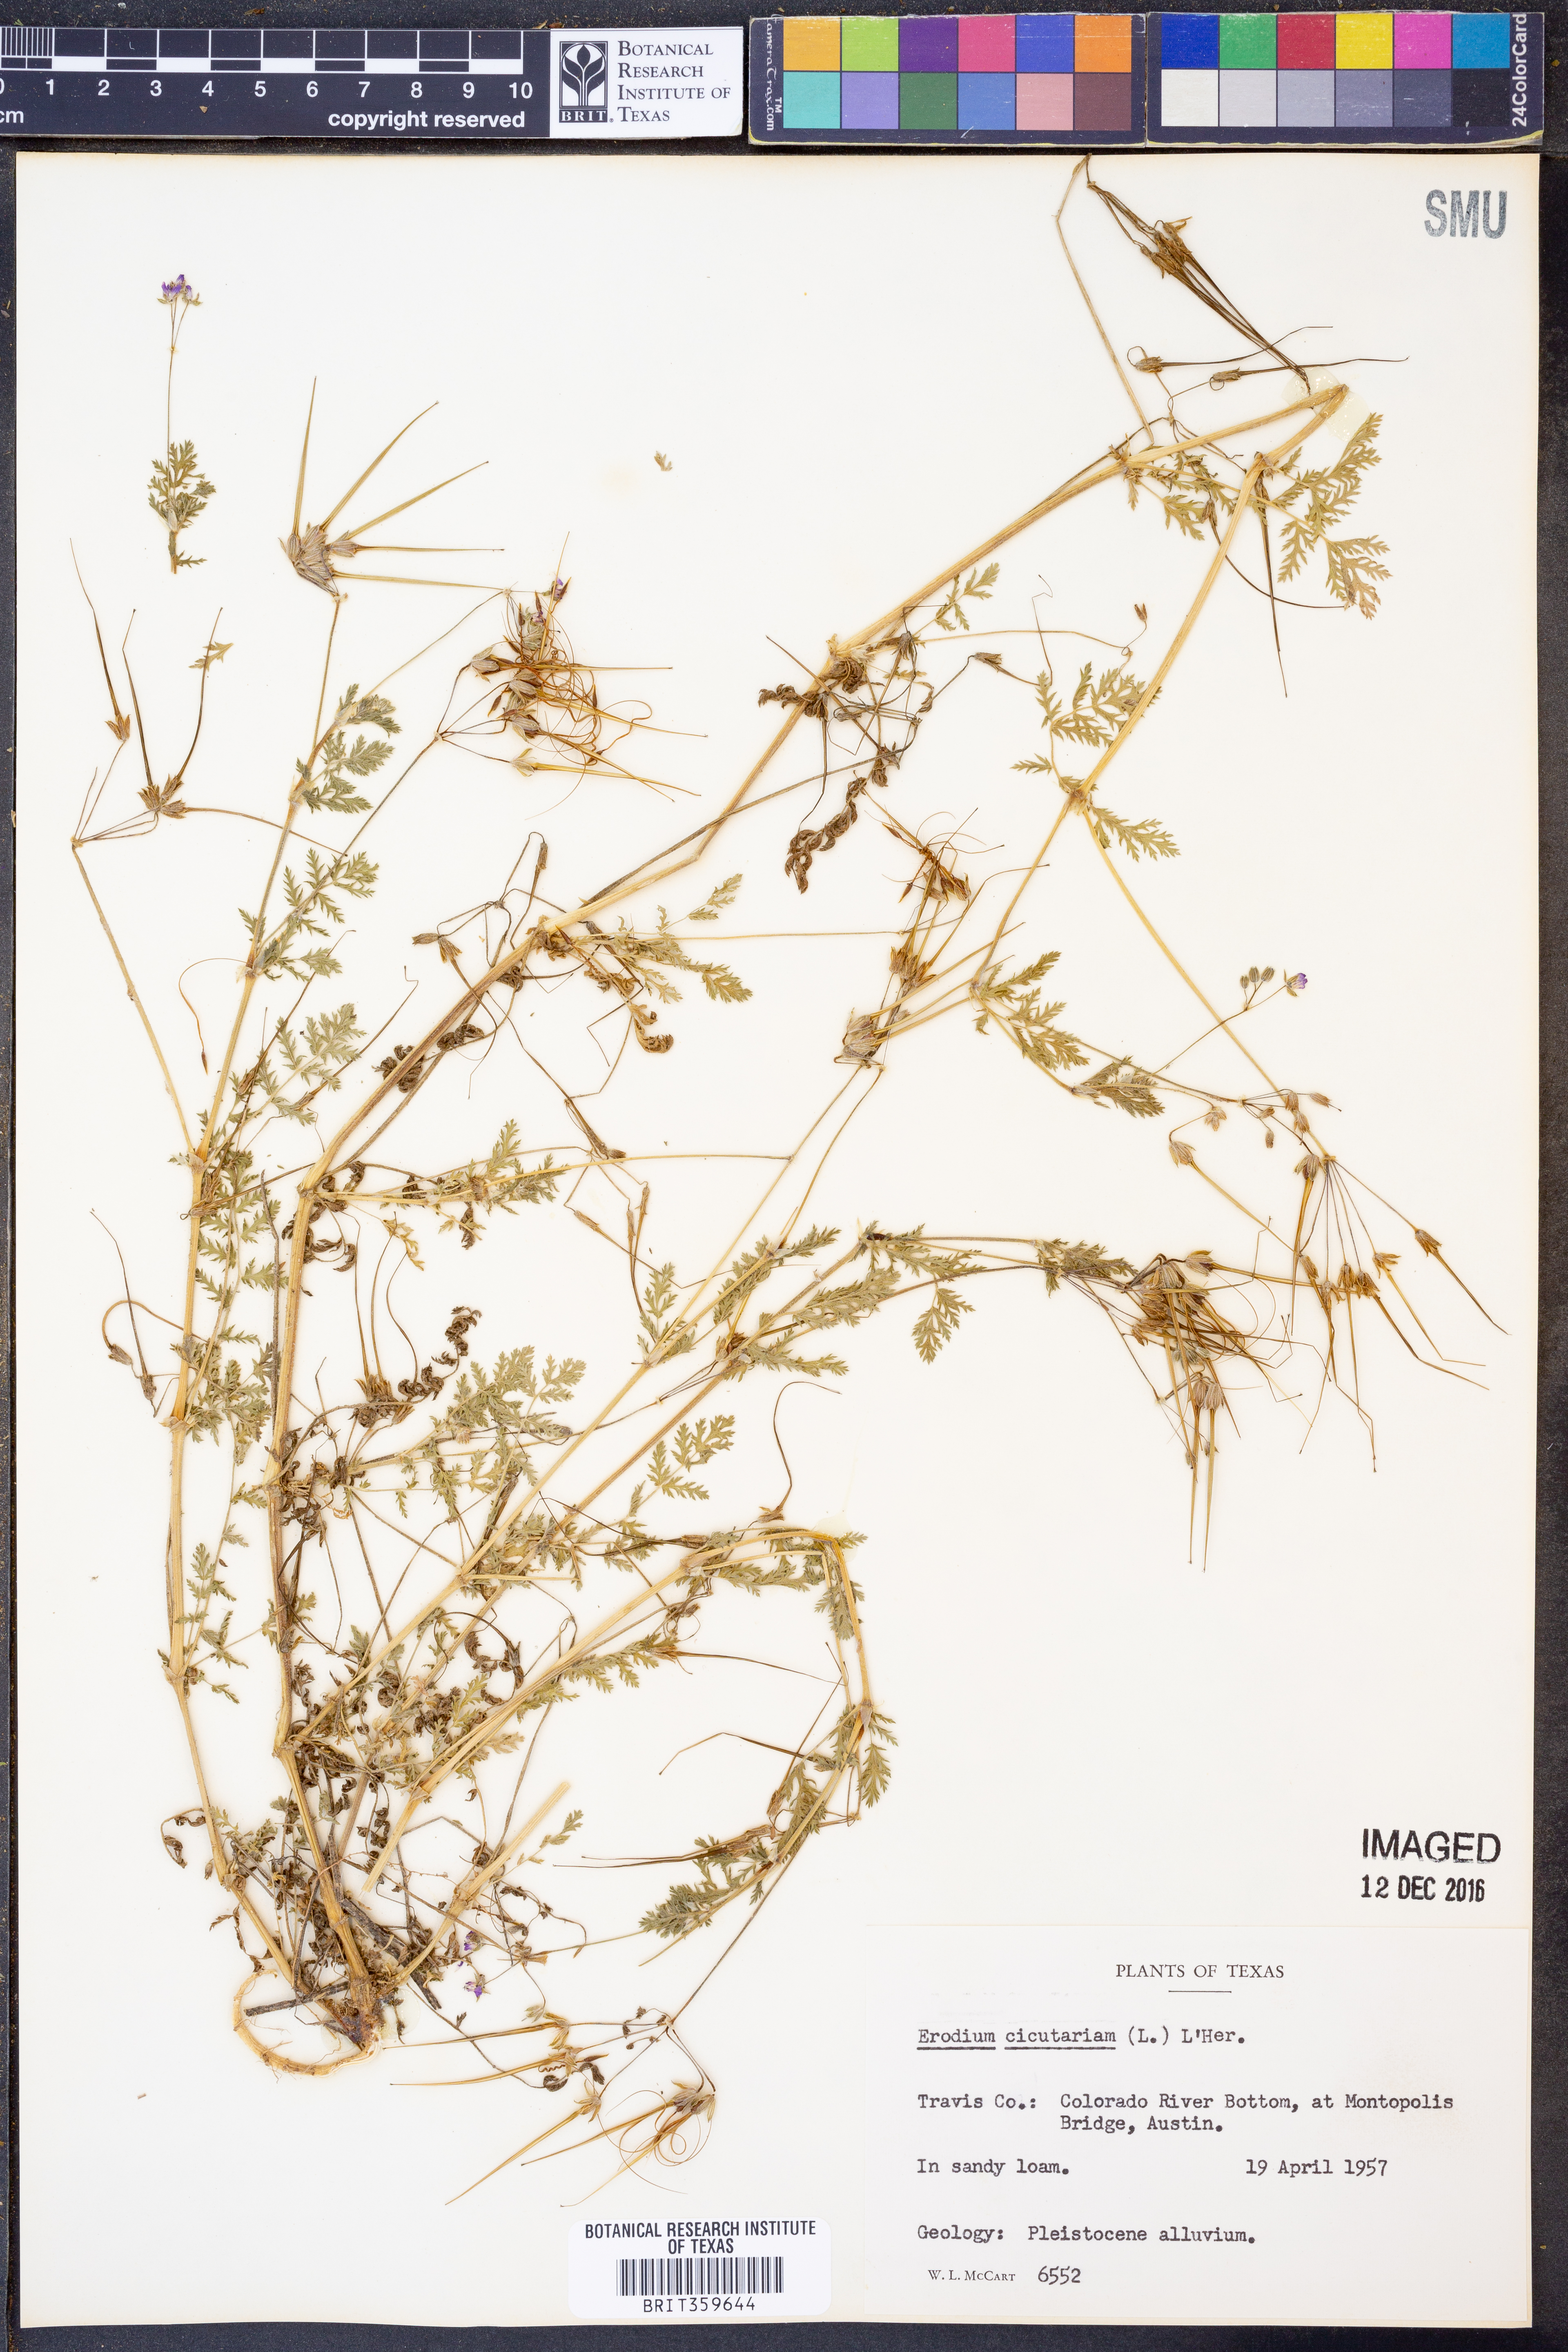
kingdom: Plantae
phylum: Tracheophyta
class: Magnoliopsida
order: Geraniales
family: Geraniaceae
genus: Erodium
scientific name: Erodium cicutarium
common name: Common stork's-bill
